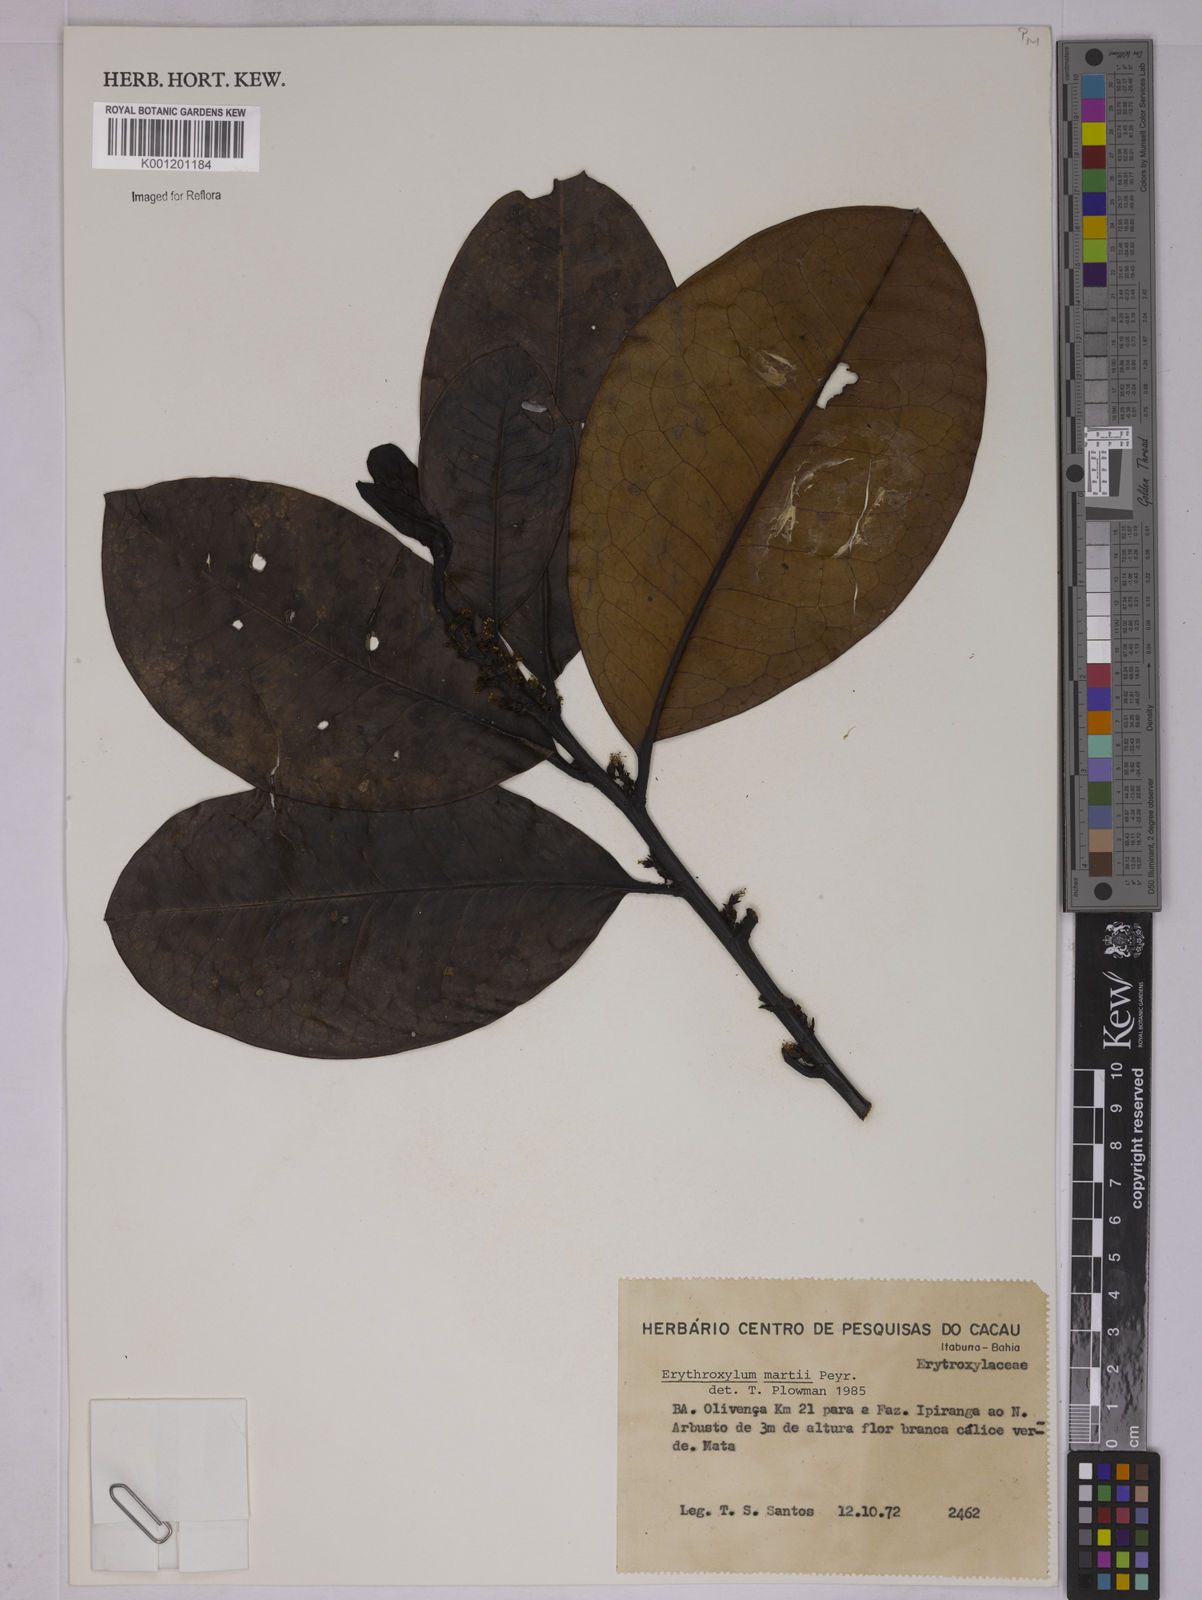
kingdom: Plantae
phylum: Tracheophyta
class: Magnoliopsida
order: Malpighiales
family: Erythroxylaceae
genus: Erythroxylum
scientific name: Erythroxylum martii
